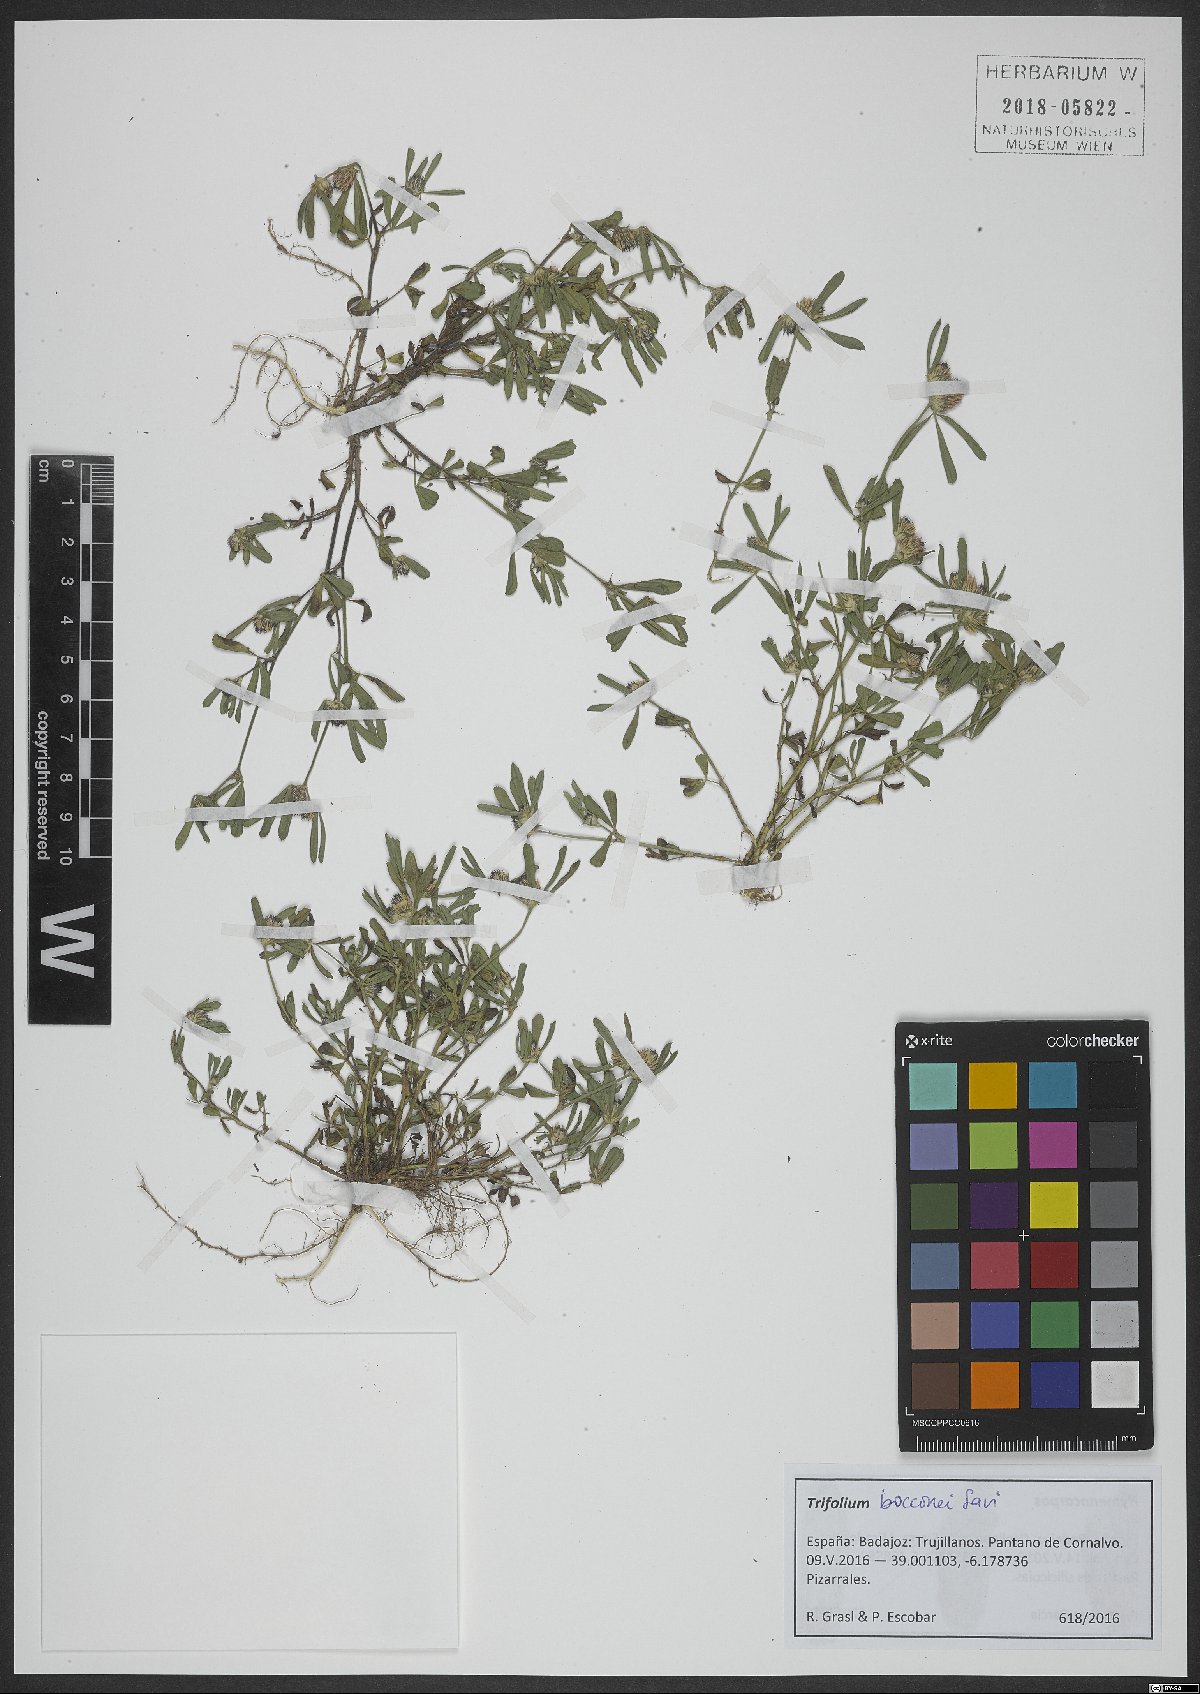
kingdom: Plantae
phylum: Tracheophyta
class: Magnoliopsida
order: Fabales
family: Fabaceae
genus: Trifolium
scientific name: Trifolium bocconei
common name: Twin-headed clover
